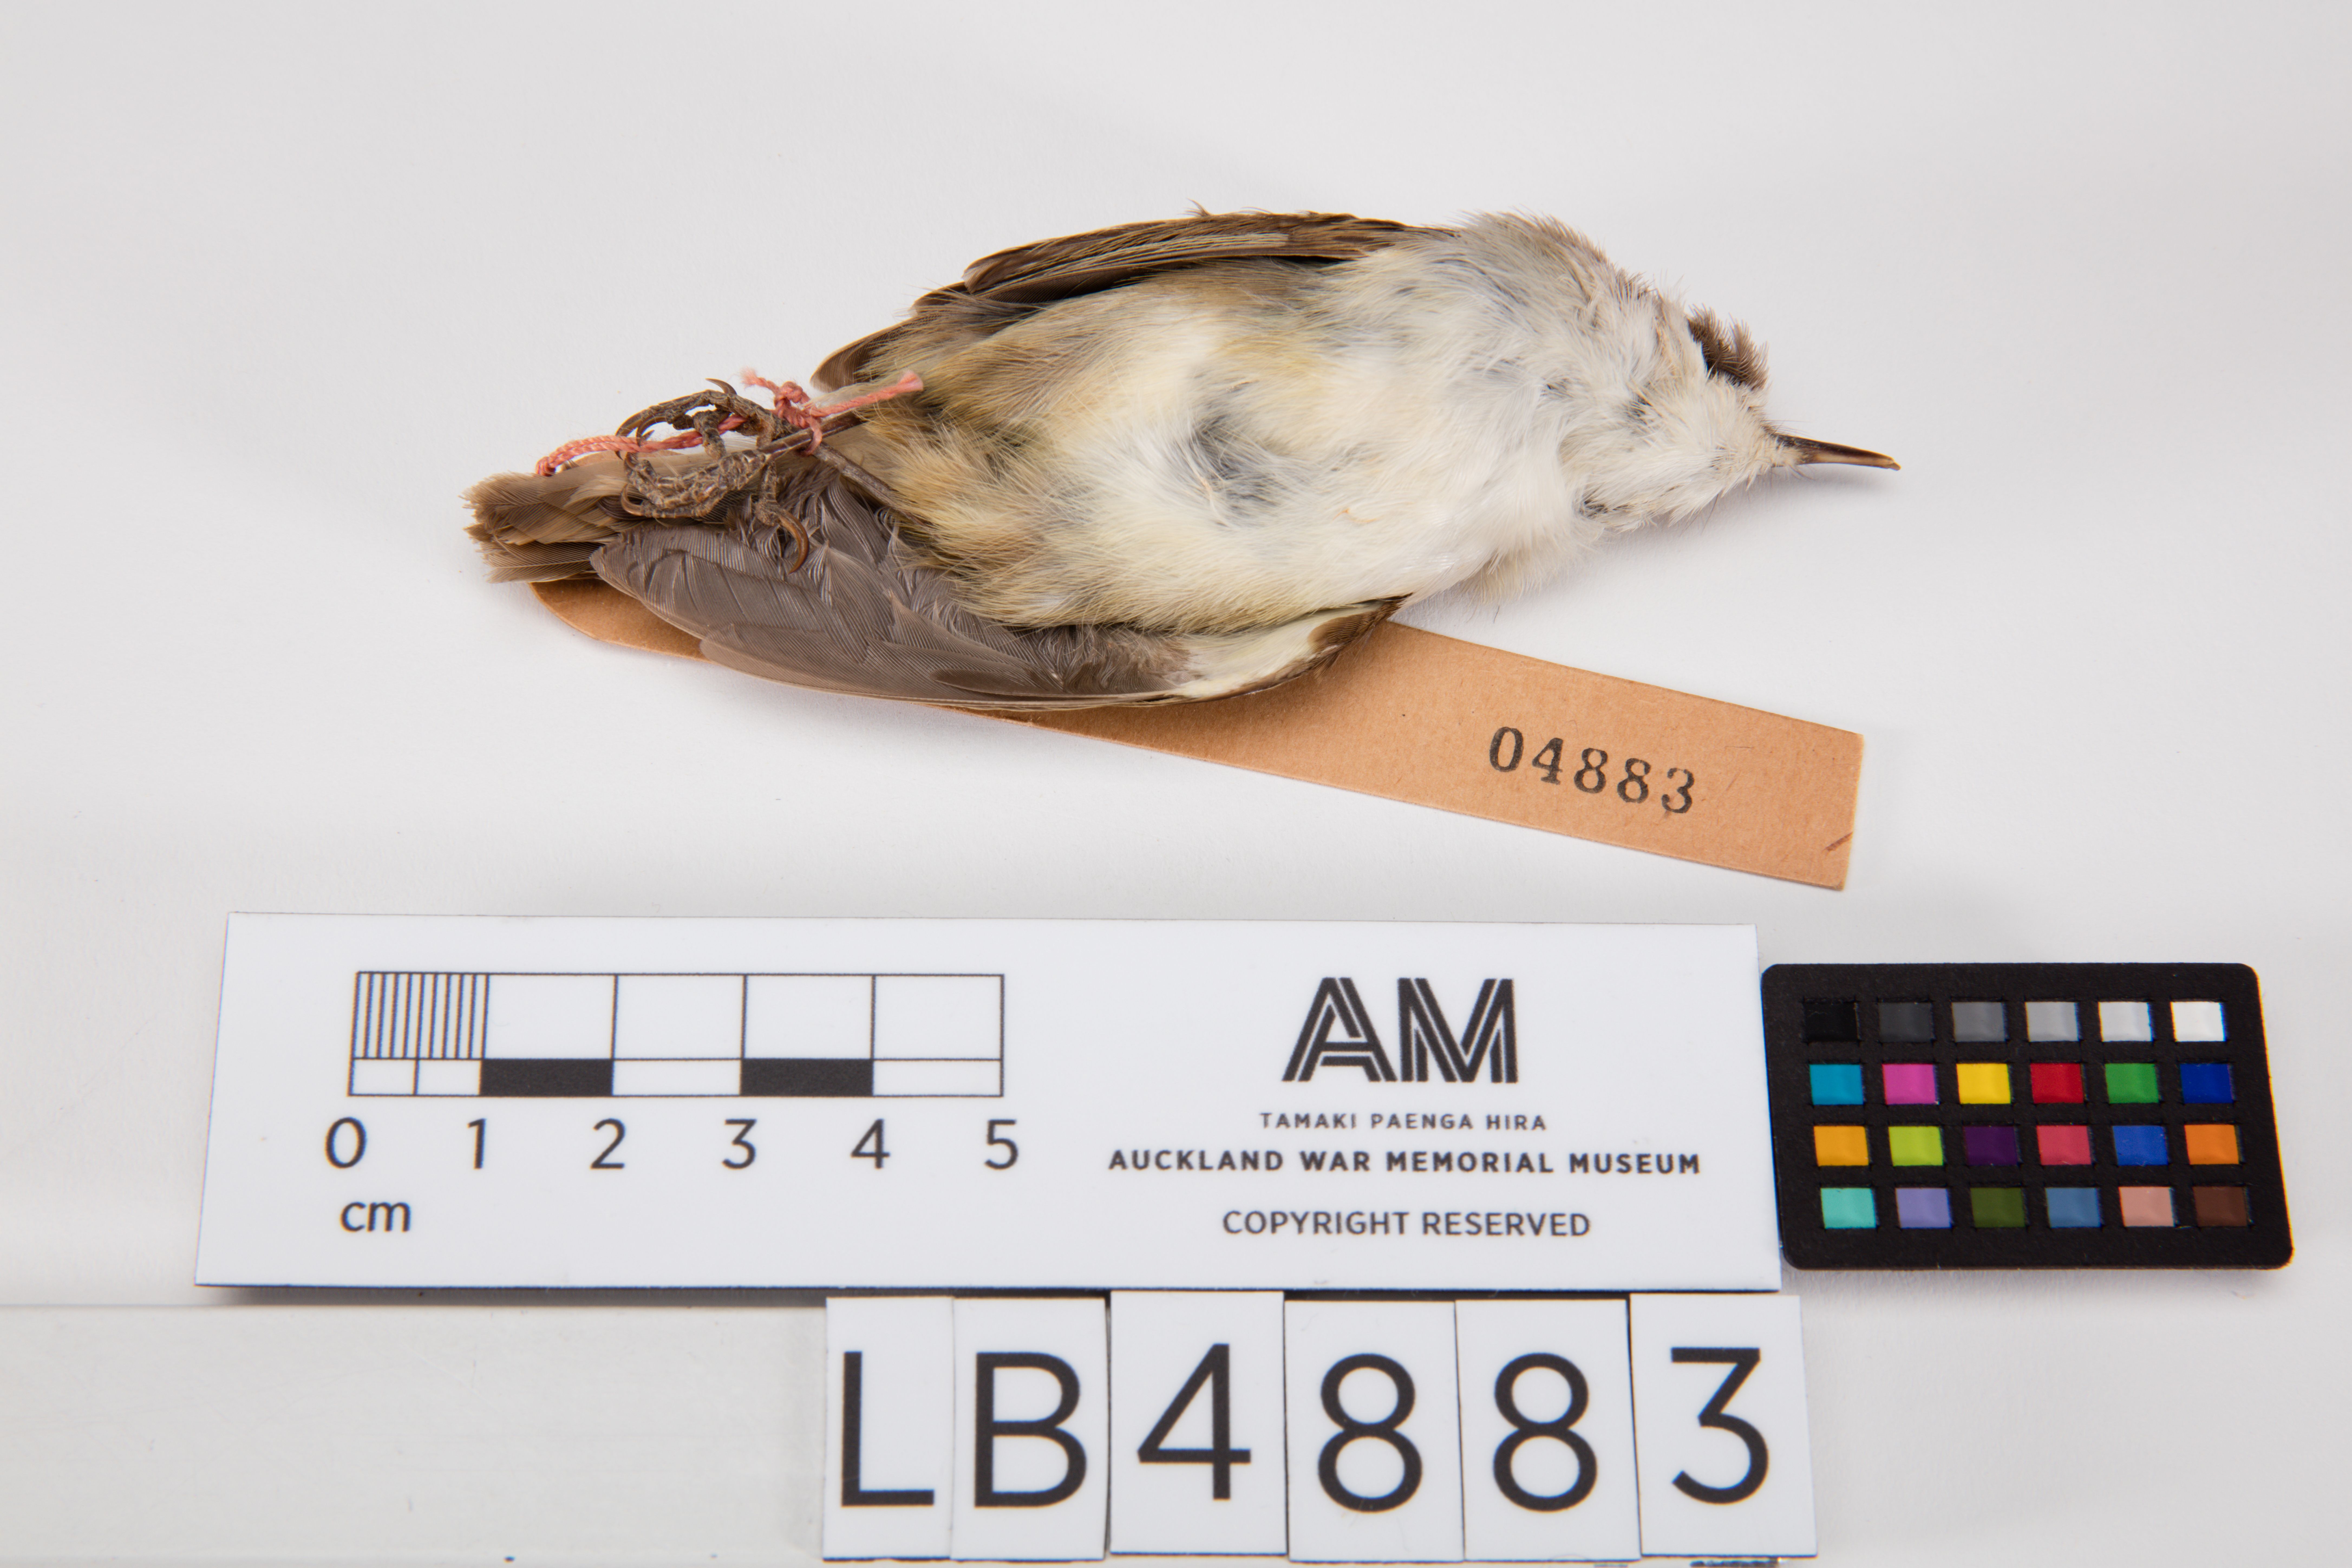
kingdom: Animalia
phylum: Chordata
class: Aves
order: Passeriformes
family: Acanthizidae
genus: Gerygone
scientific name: Gerygone albofrontata
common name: Chatham gerygone
